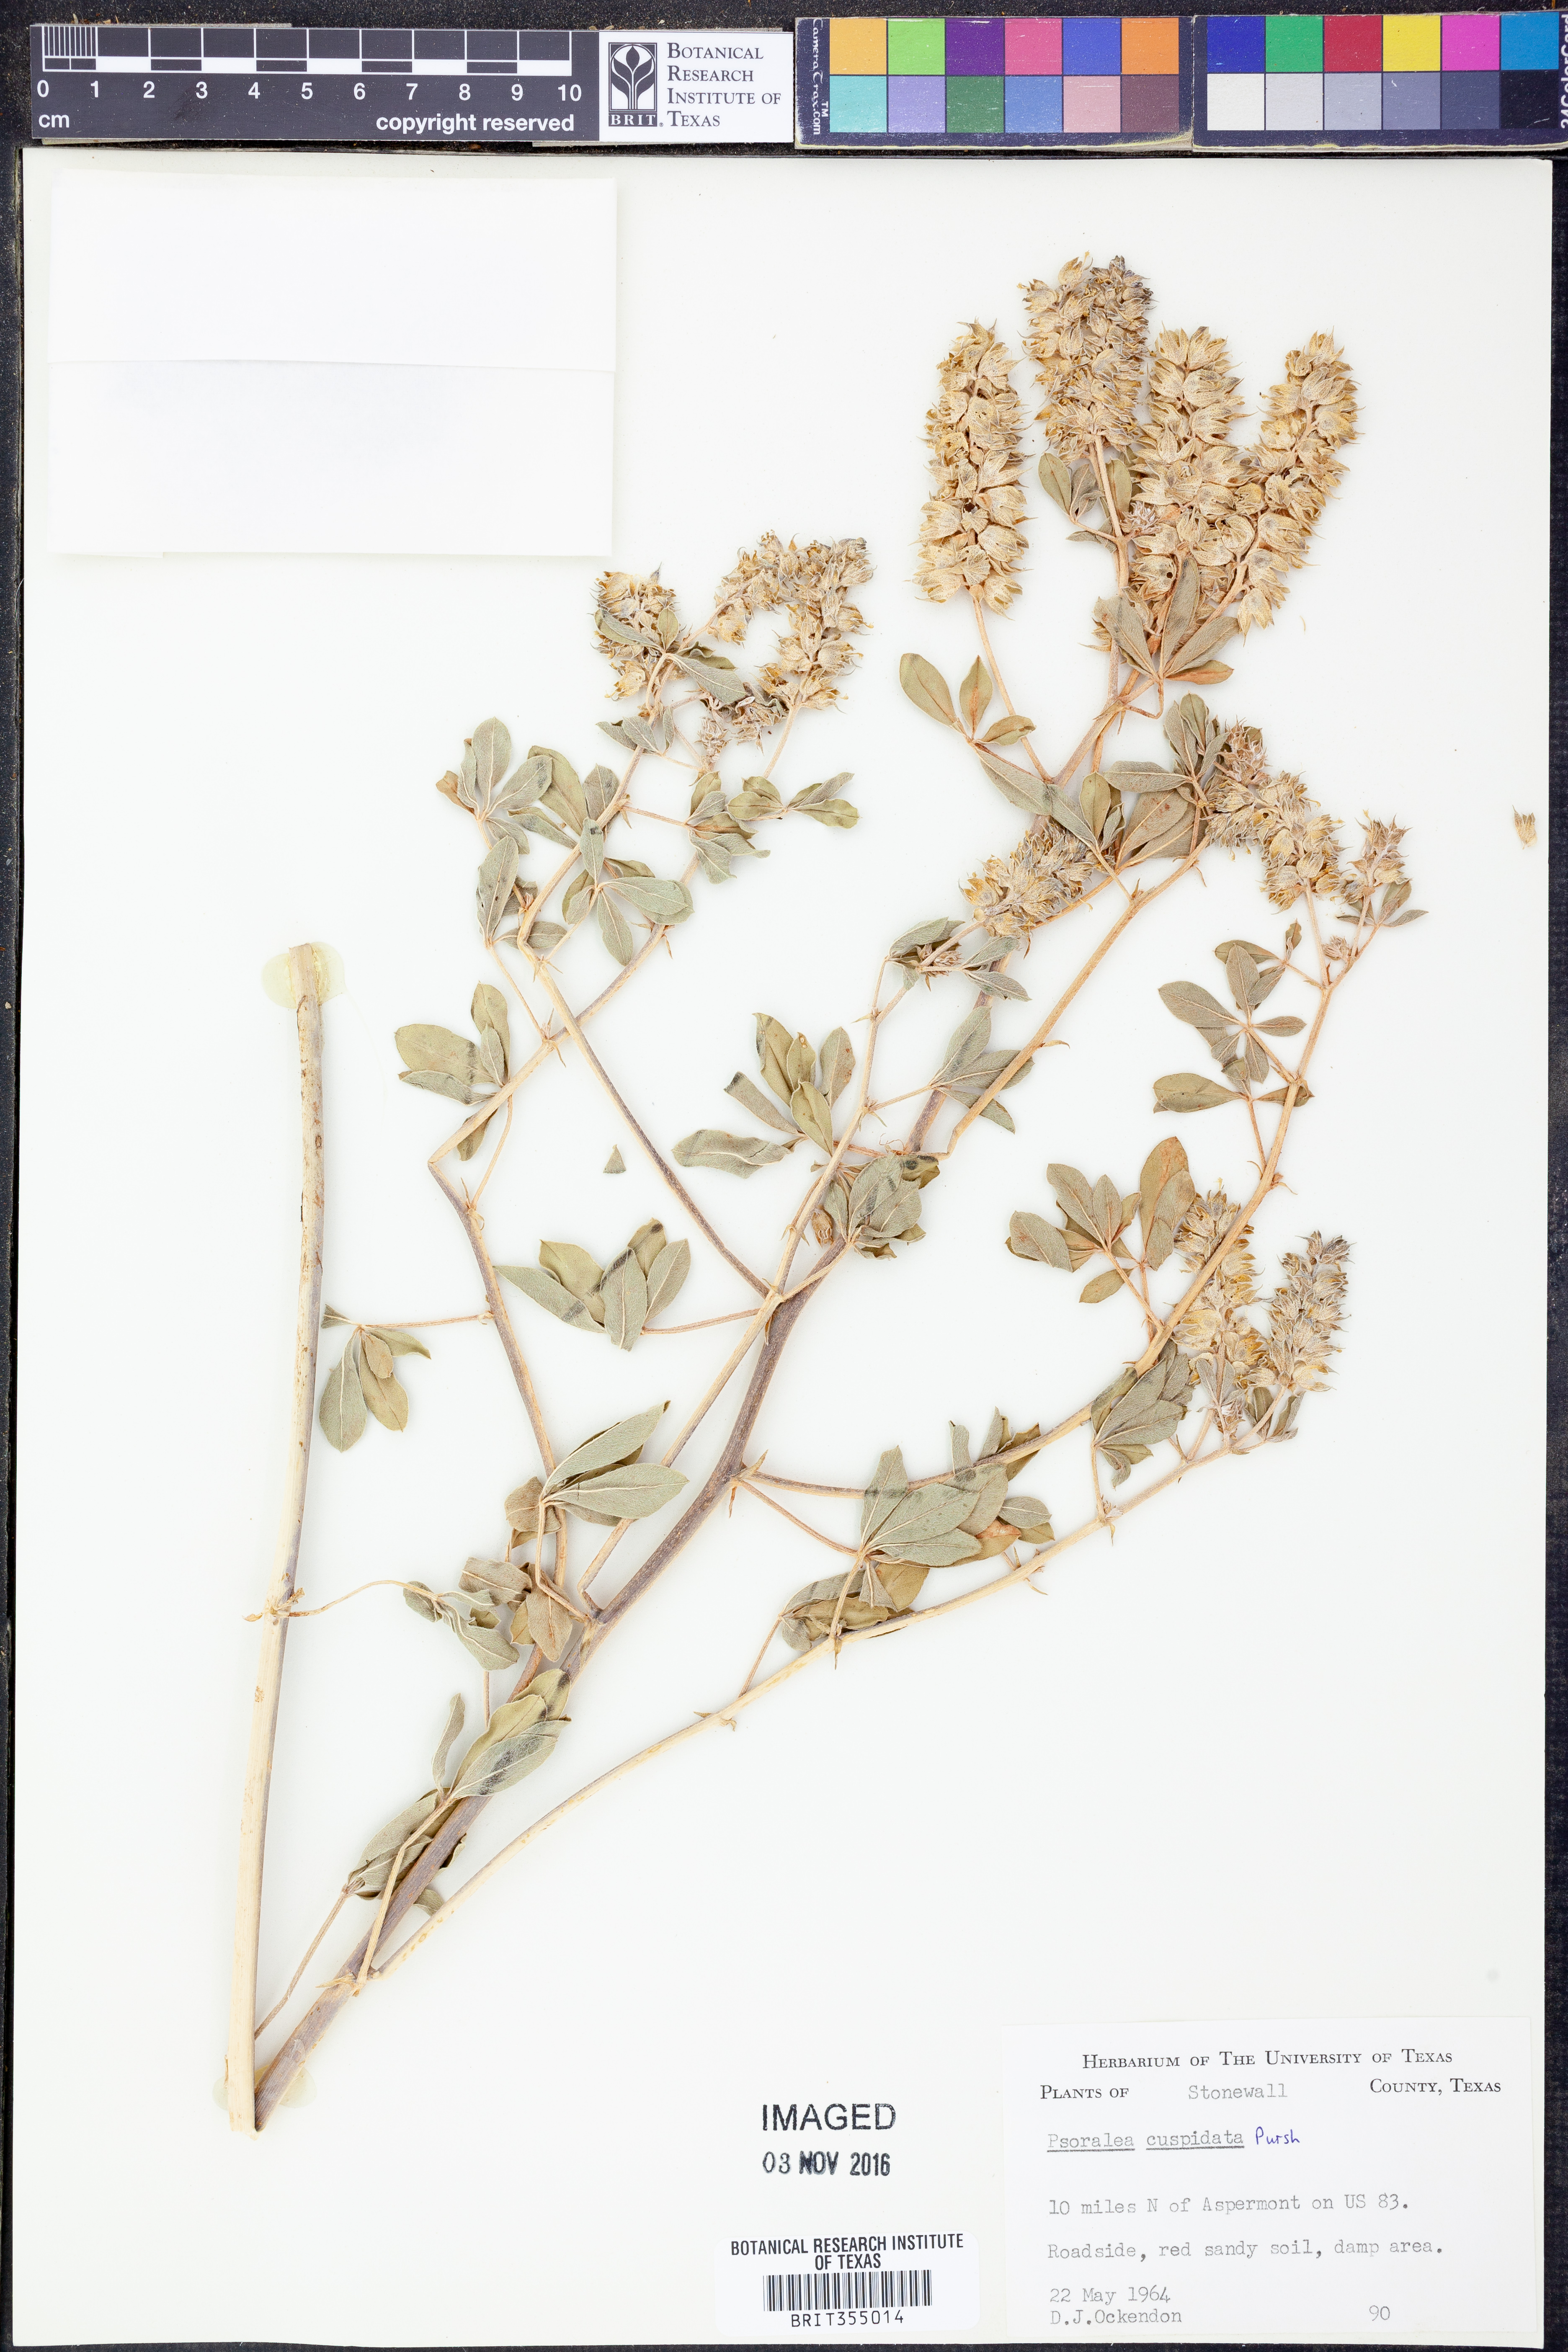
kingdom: Plantae
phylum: Tracheophyta
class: Magnoliopsida
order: Fabales
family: Fabaceae
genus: Pediomelum
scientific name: Pediomelum cuspidatum
